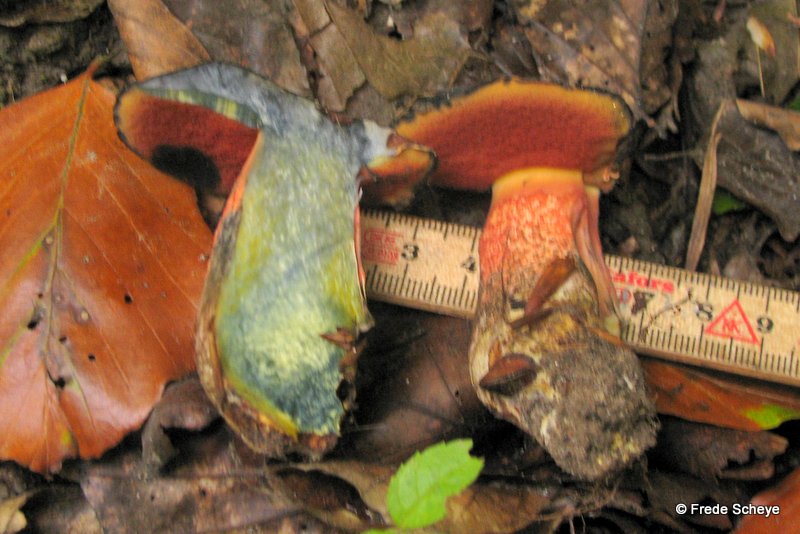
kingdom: Fungi
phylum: Basidiomycota
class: Agaricomycetes
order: Boletales
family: Boletaceae
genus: Neoboletus
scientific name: Neoboletus erythropus
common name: punktstokket indigorørhat
